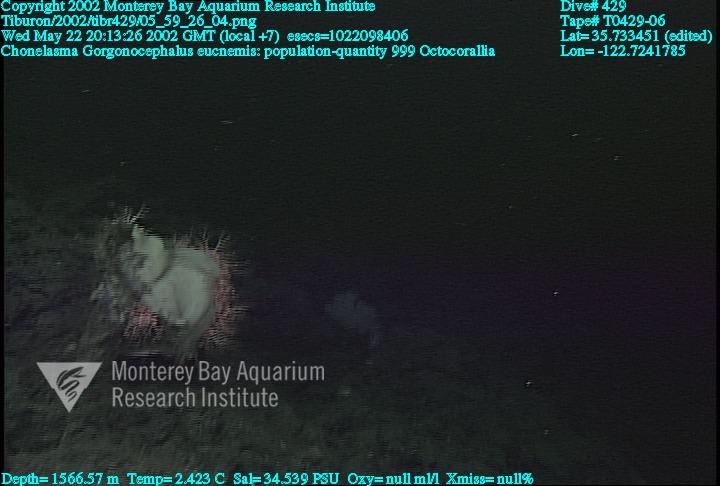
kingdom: Animalia
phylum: Porifera
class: Hexactinellida
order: Sceptrulophora
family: Euretidae
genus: Chonelasma
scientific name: Chonelasma
